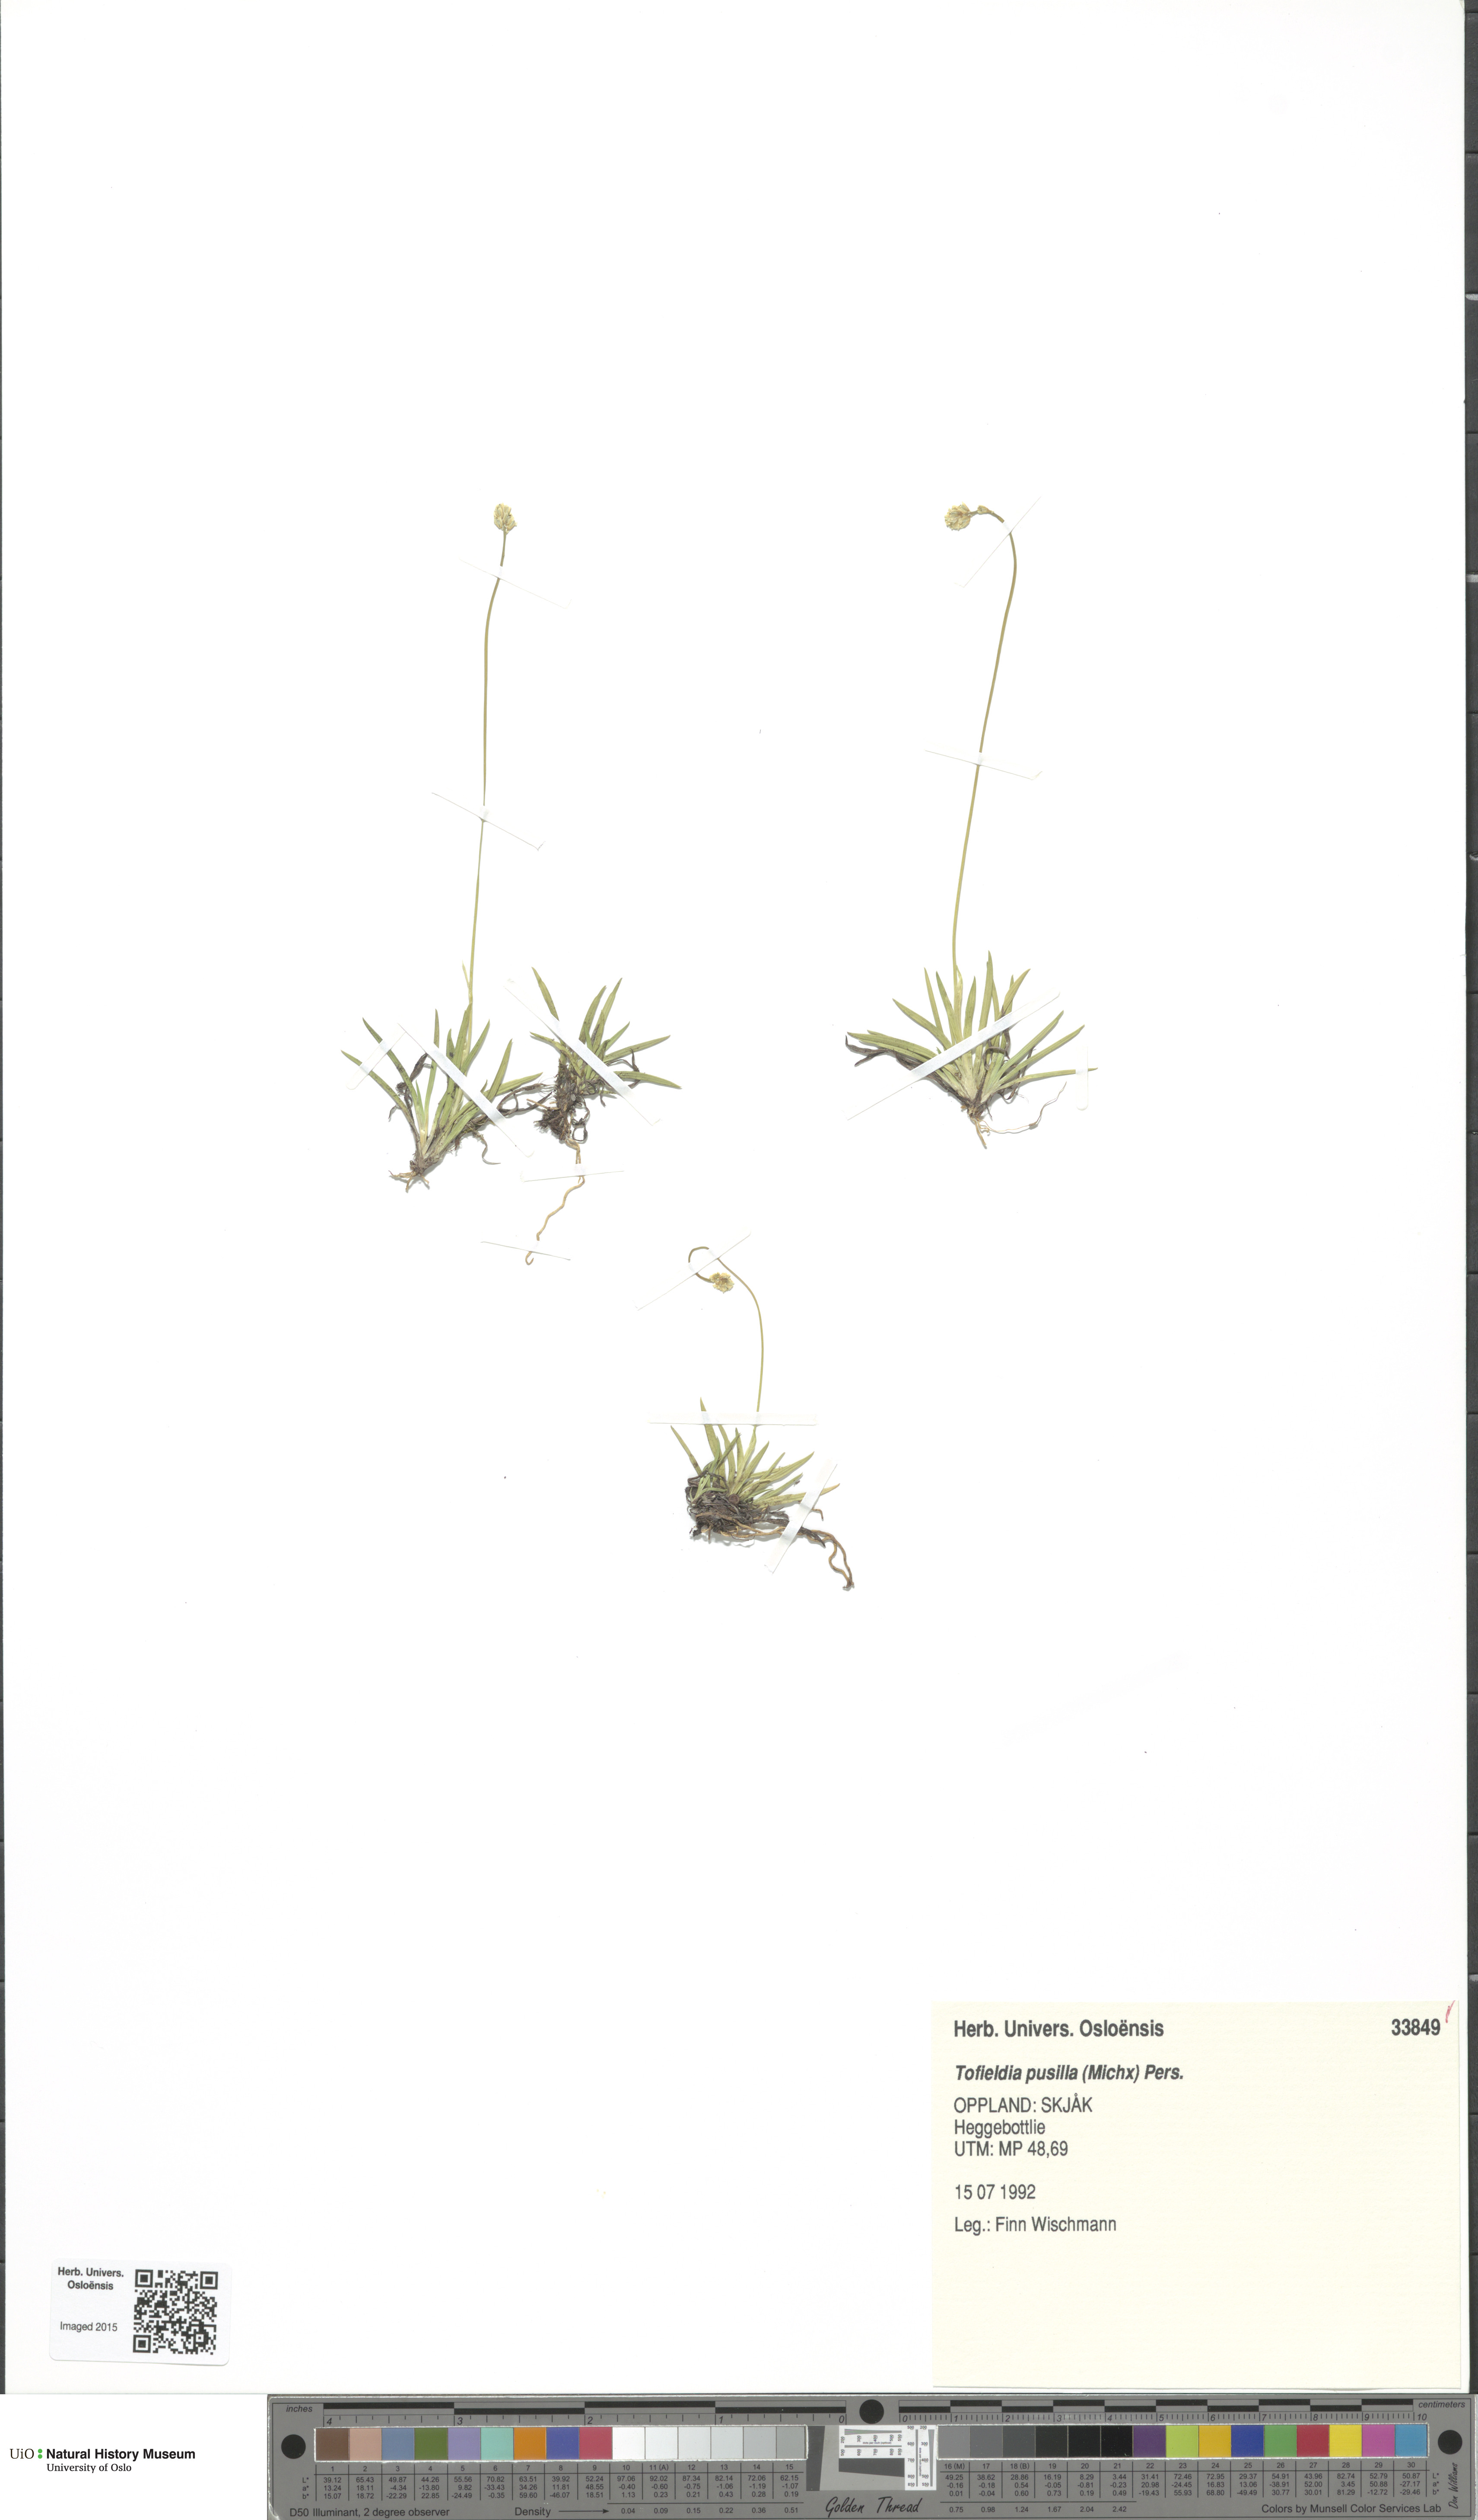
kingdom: Plantae
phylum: Tracheophyta
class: Liliopsida
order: Alismatales
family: Tofieldiaceae
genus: Tofieldia
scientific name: Tofieldia pusilla
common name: Scottish false asphodel
